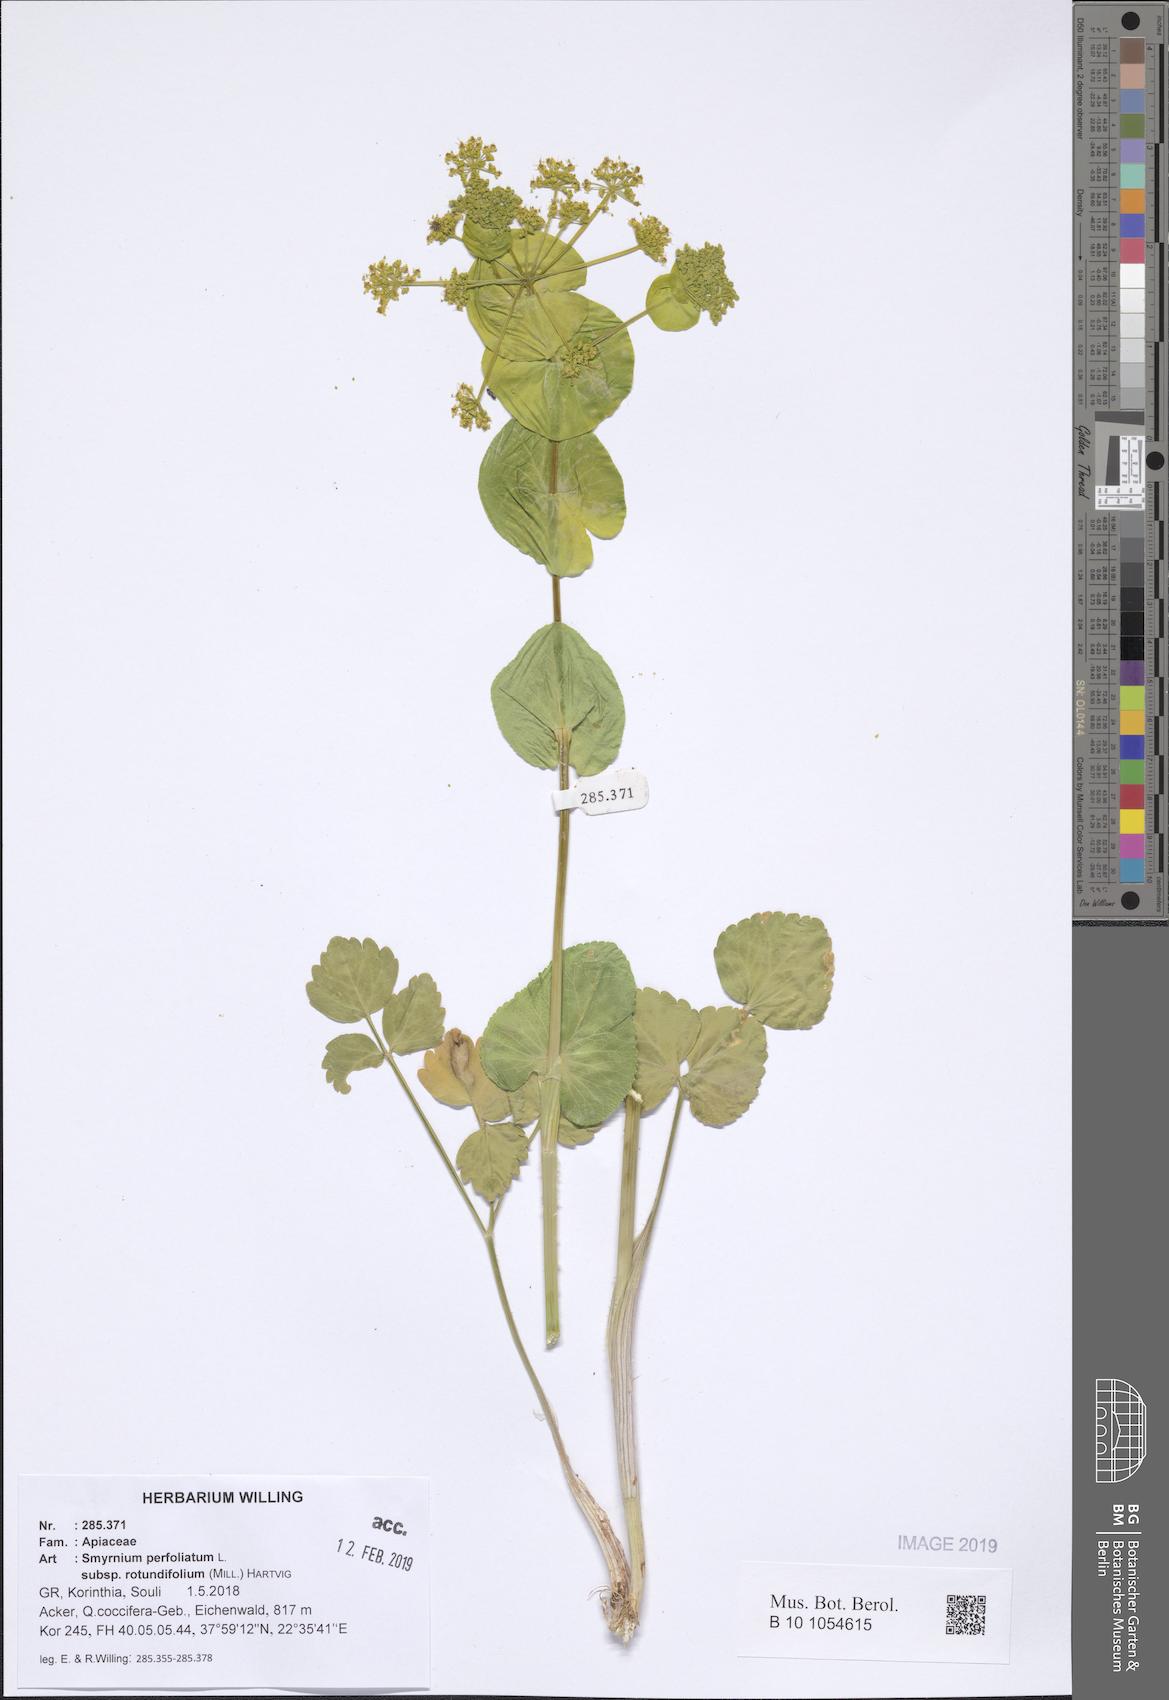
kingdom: Plantae
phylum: Tracheophyta
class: Magnoliopsida
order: Apiales
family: Apiaceae
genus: Smyrnium
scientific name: Smyrnium perfoliatum
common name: Perfoliate alexanders
